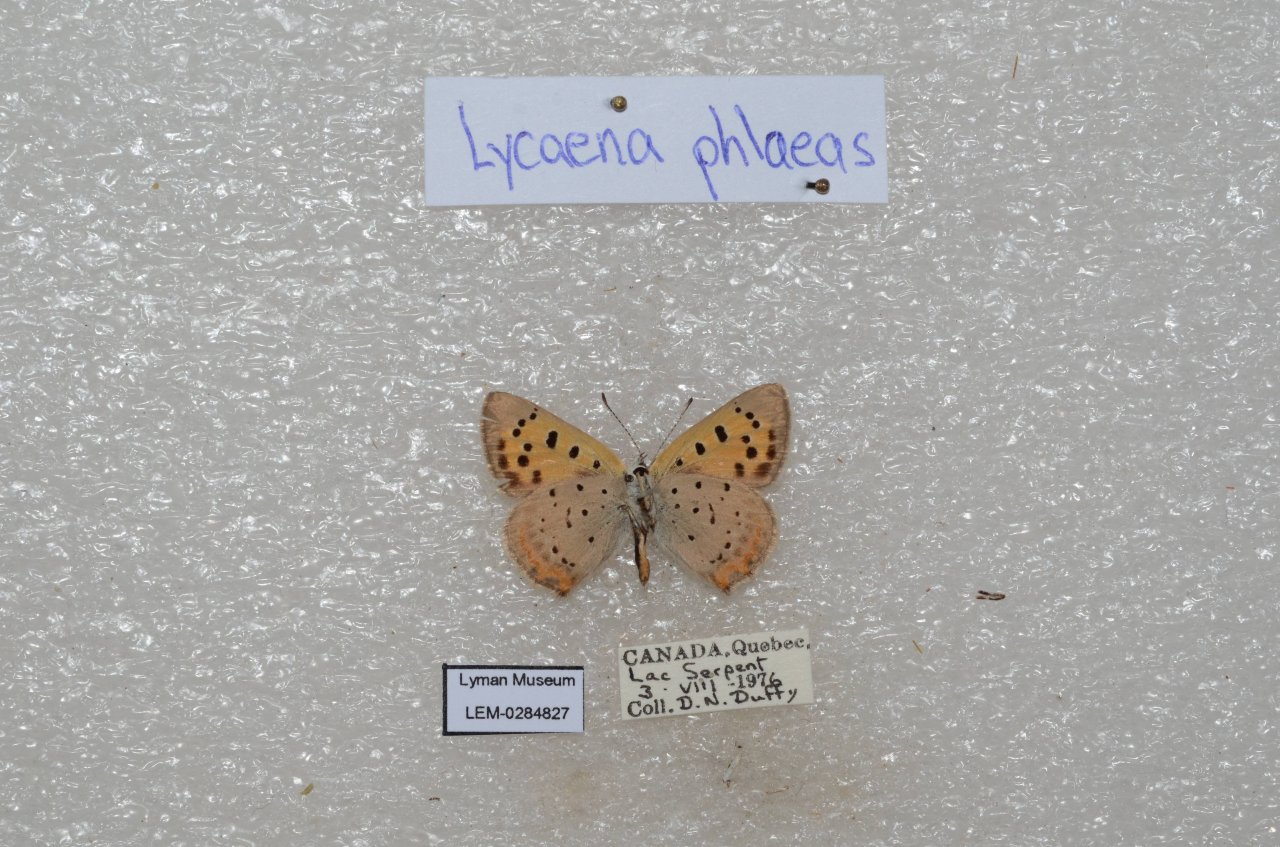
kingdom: Animalia
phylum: Arthropoda
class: Insecta
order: Lepidoptera
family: Lycaenidae
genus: Lycaena
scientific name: Lycaena phlaeas
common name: American Copper
